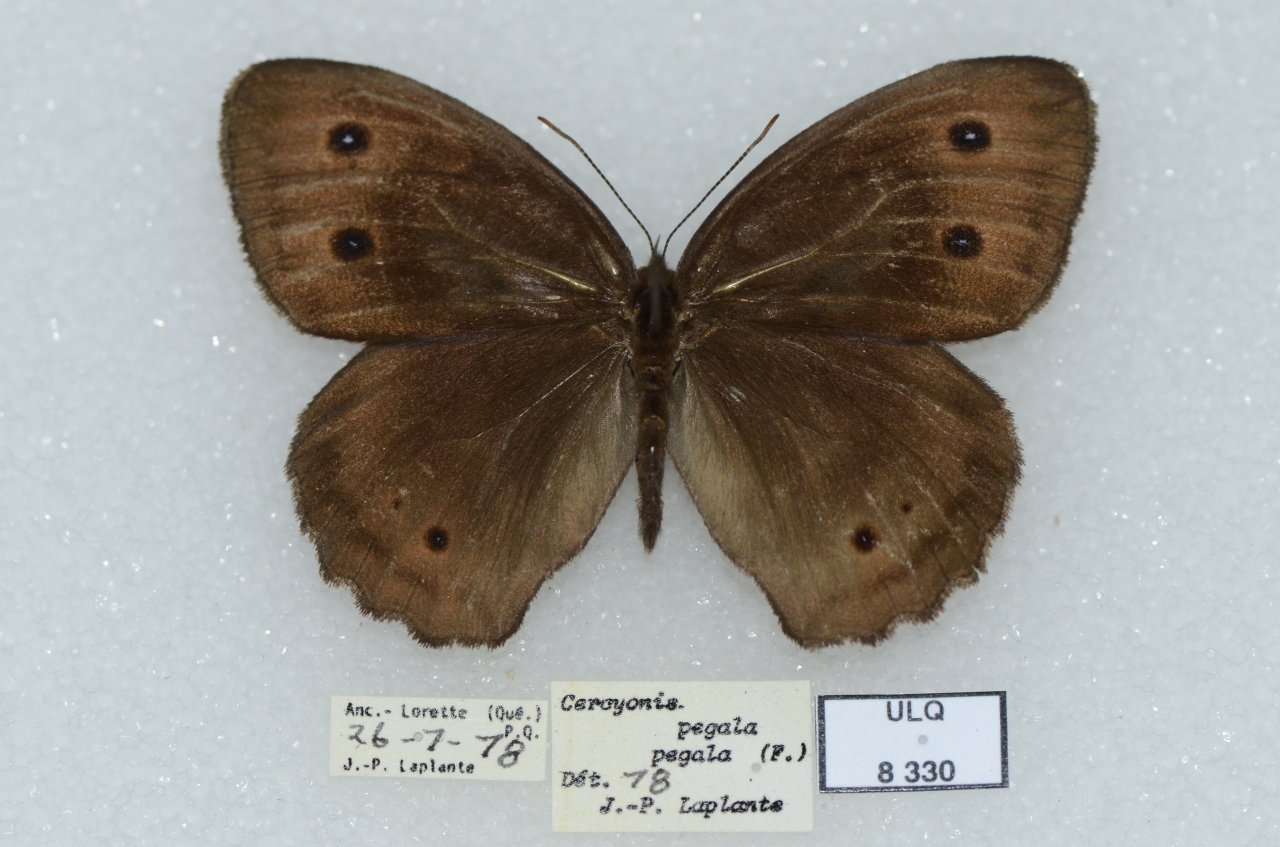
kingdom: Animalia
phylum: Arthropoda
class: Insecta
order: Lepidoptera
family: Nymphalidae
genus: Cercyonis
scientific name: Cercyonis pegala
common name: Common Wood-Nymph
